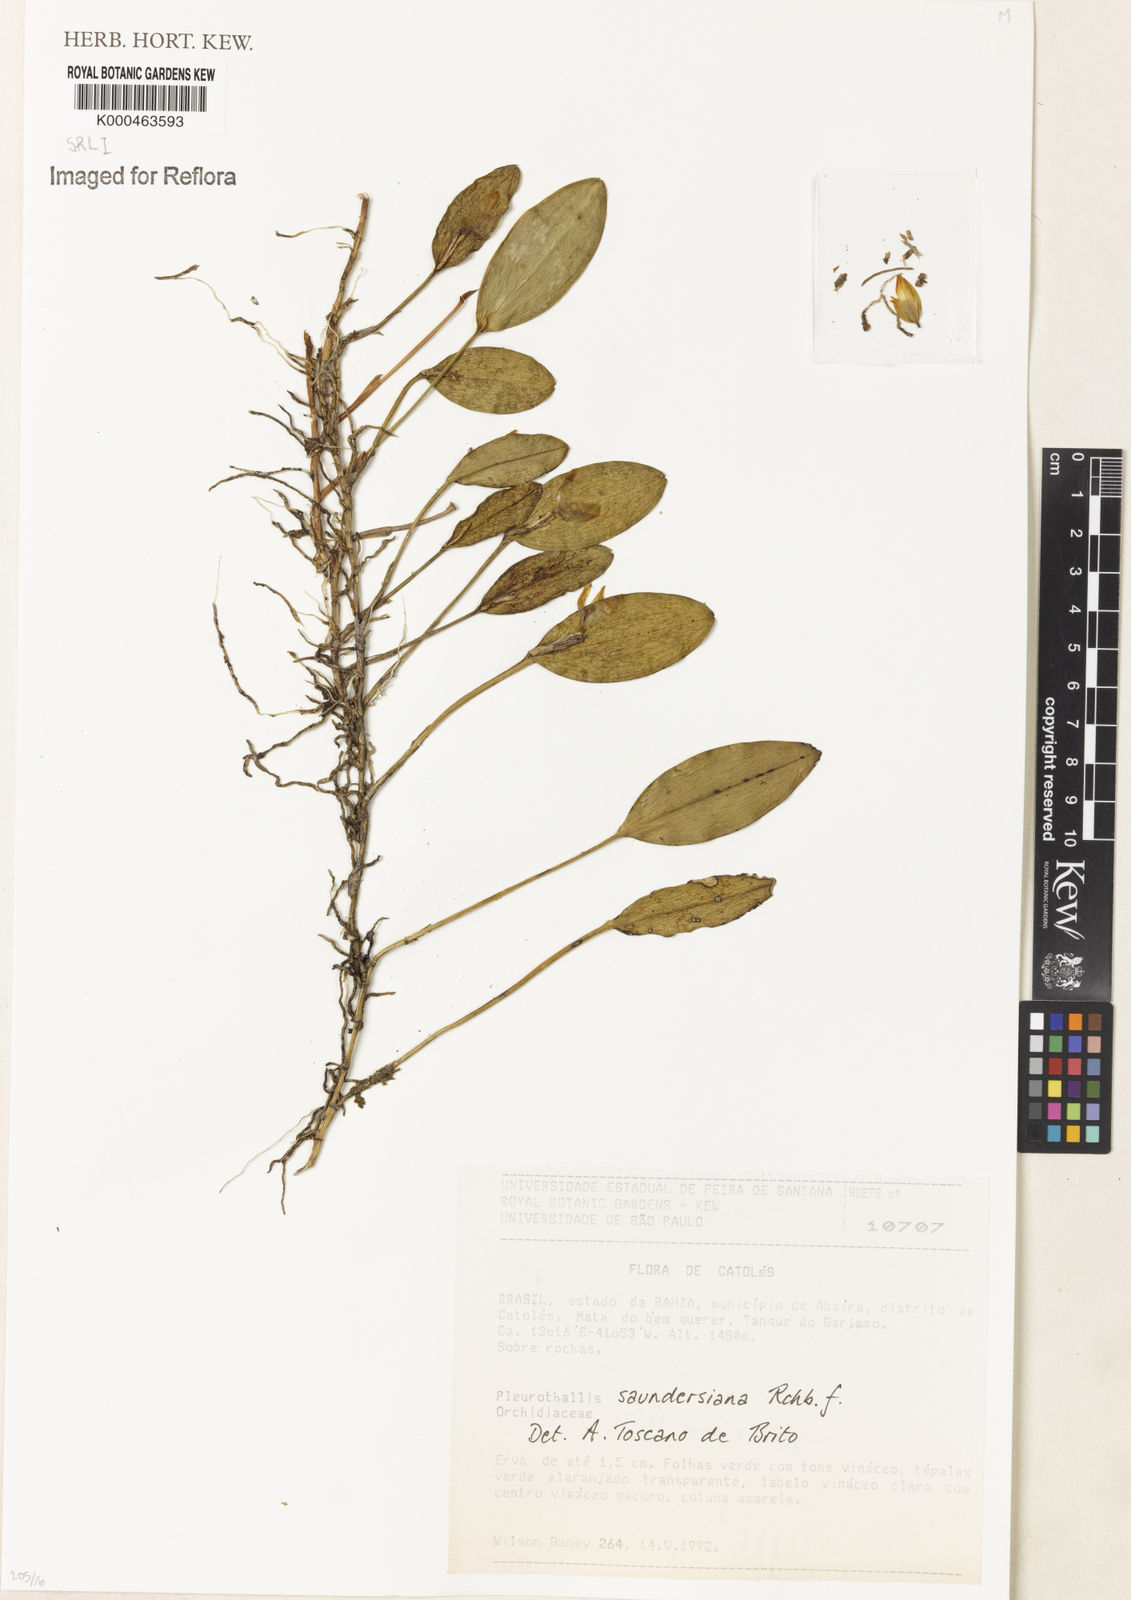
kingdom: Plantae
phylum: Tracheophyta
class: Liliopsida
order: Asparagales
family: Orchidaceae
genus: Acianthera
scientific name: Acianthera saundersiana
